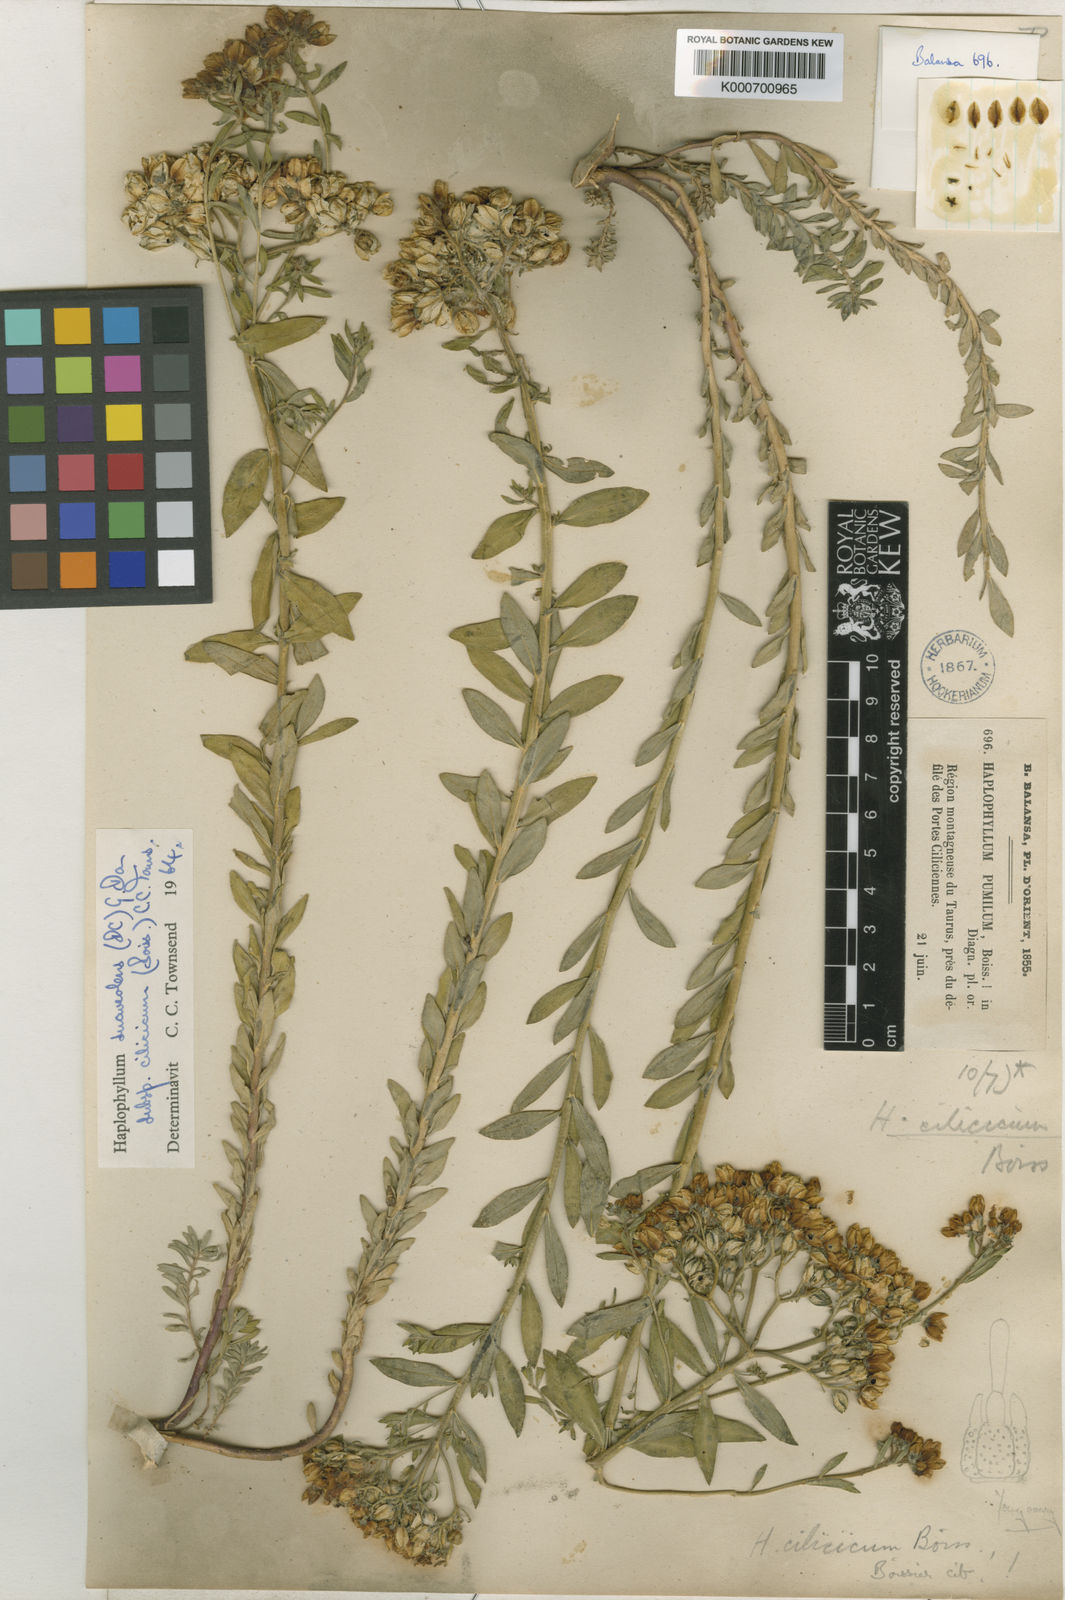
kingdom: Plantae
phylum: Tracheophyta
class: Magnoliopsida
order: Sapindales
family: Rutaceae
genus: Haplophyllum
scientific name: Haplophyllum suaveolens
